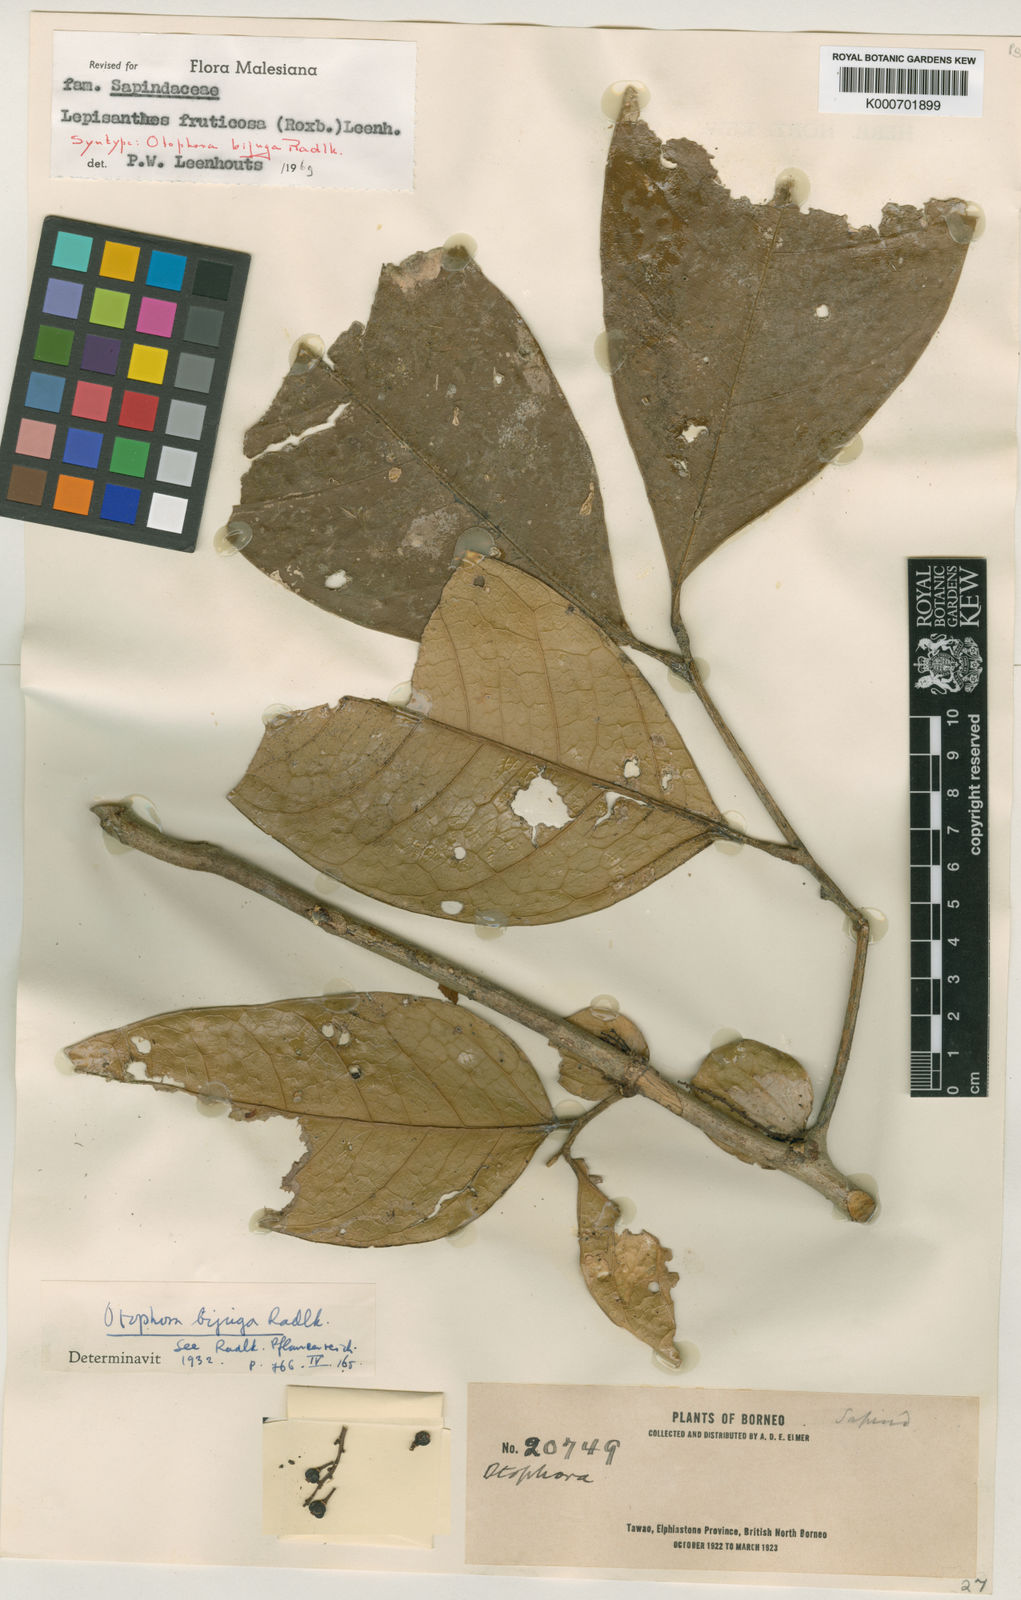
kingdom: Plantae
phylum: Tracheophyta
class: Magnoliopsida
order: Sapindales
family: Sapindaceae
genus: Lepisanthes
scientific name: Lepisanthes fruticosa
